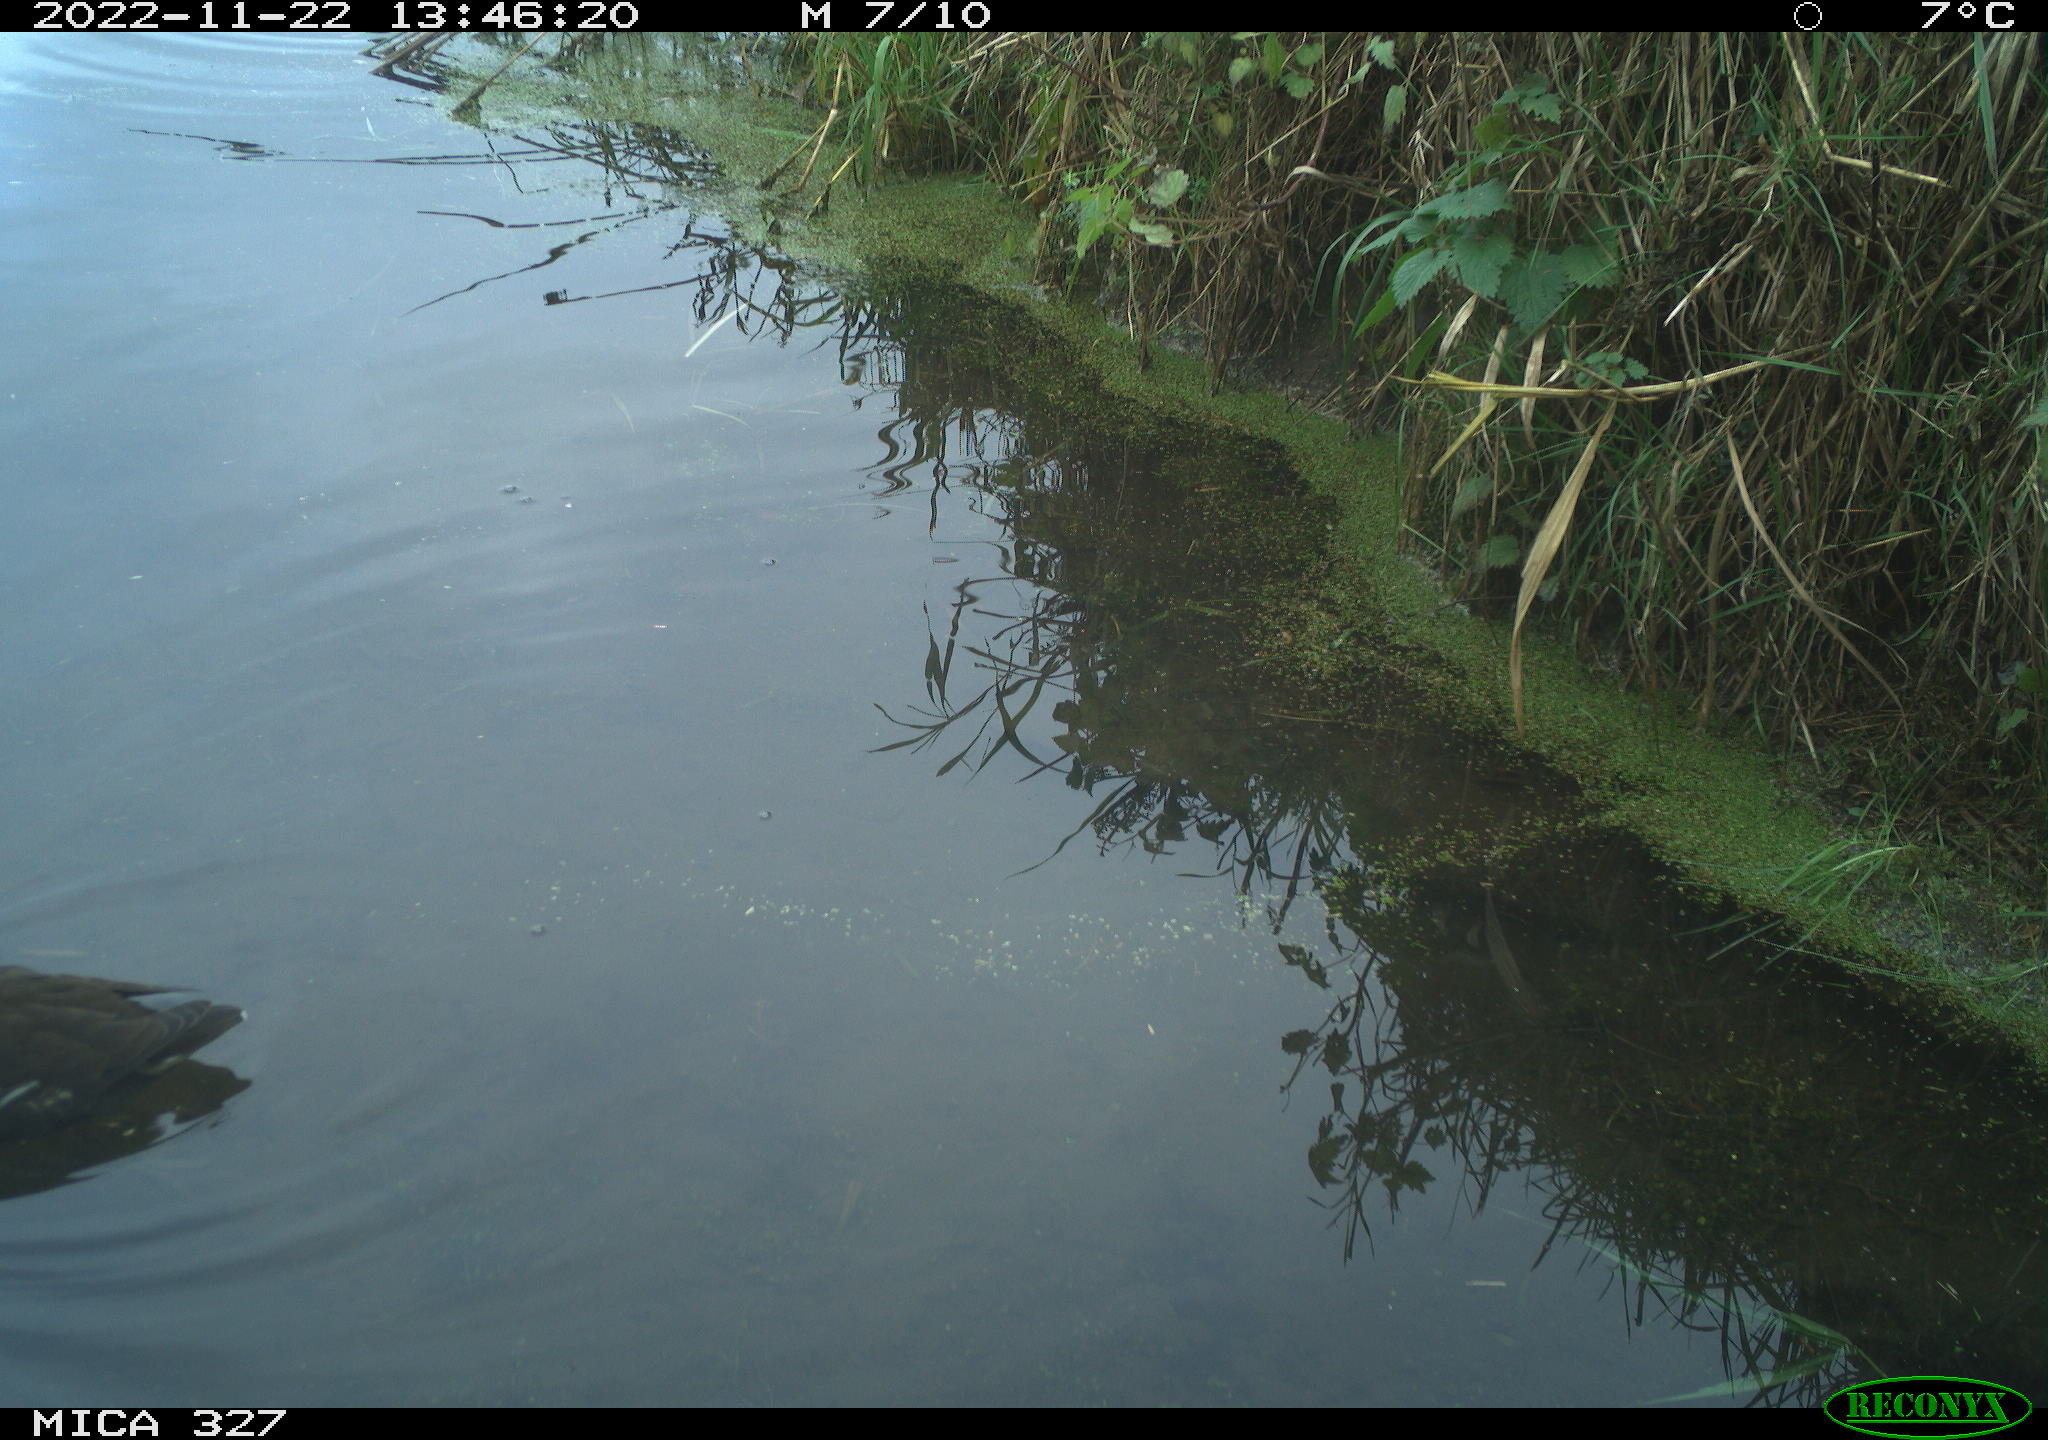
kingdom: Animalia
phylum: Chordata
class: Aves
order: Gruiformes
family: Rallidae
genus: Gallinula
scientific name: Gallinula chloropus
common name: Common moorhen
